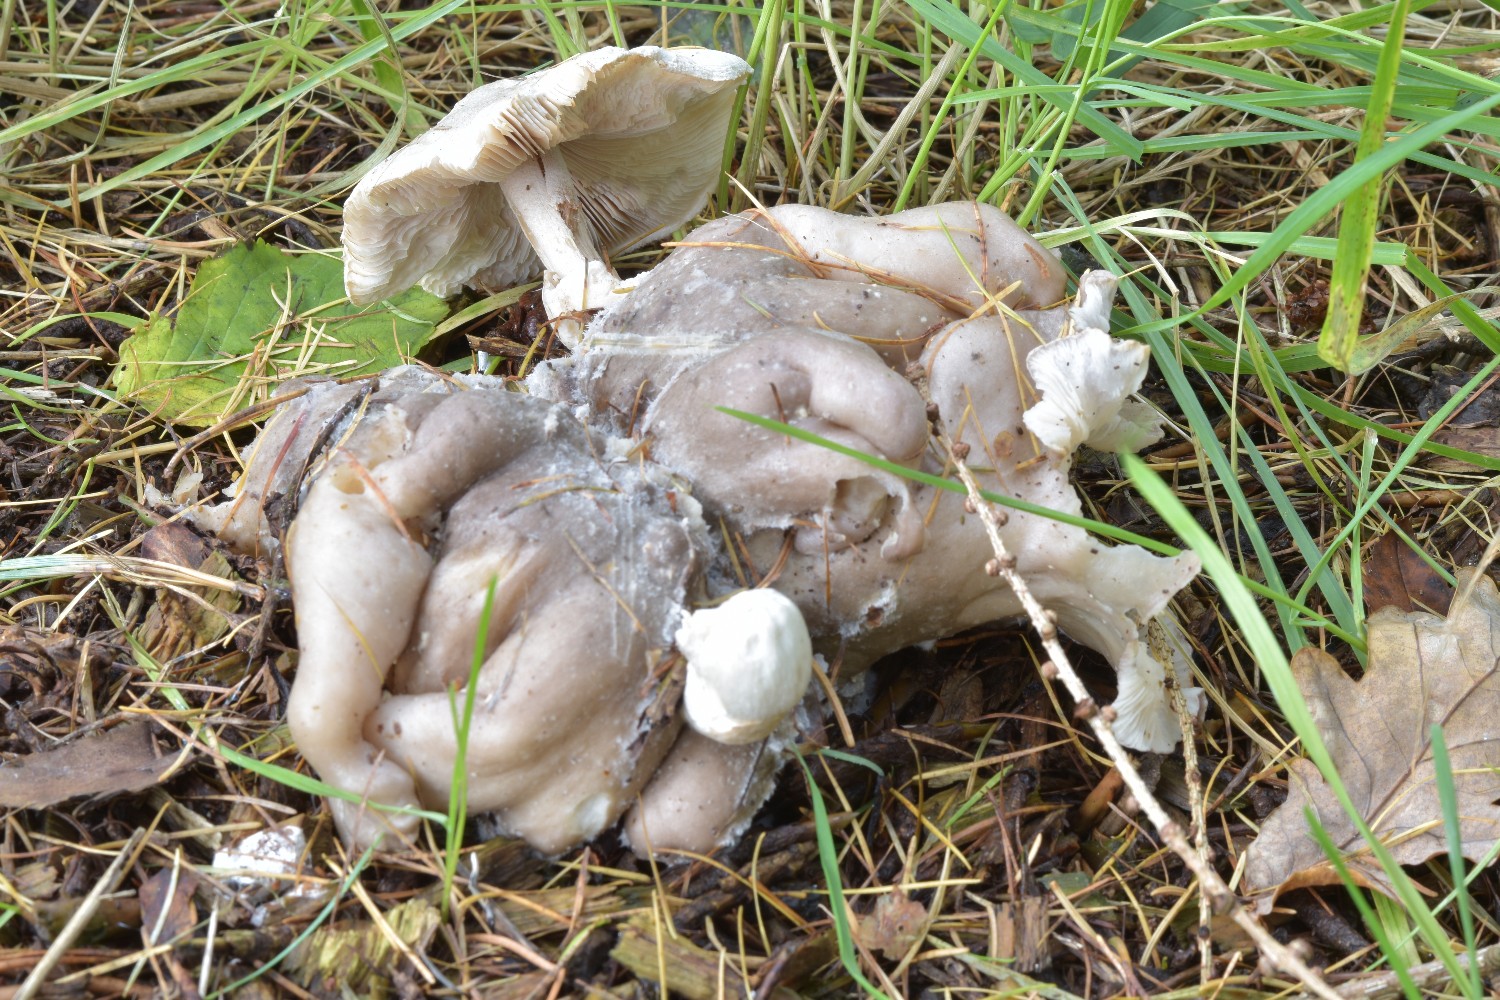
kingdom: Fungi
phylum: Basidiomycota
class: Agaricomycetes
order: Agaricales
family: Pluteaceae
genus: Volvariella
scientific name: Volvariella surrecta
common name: snyltende posesvamp
